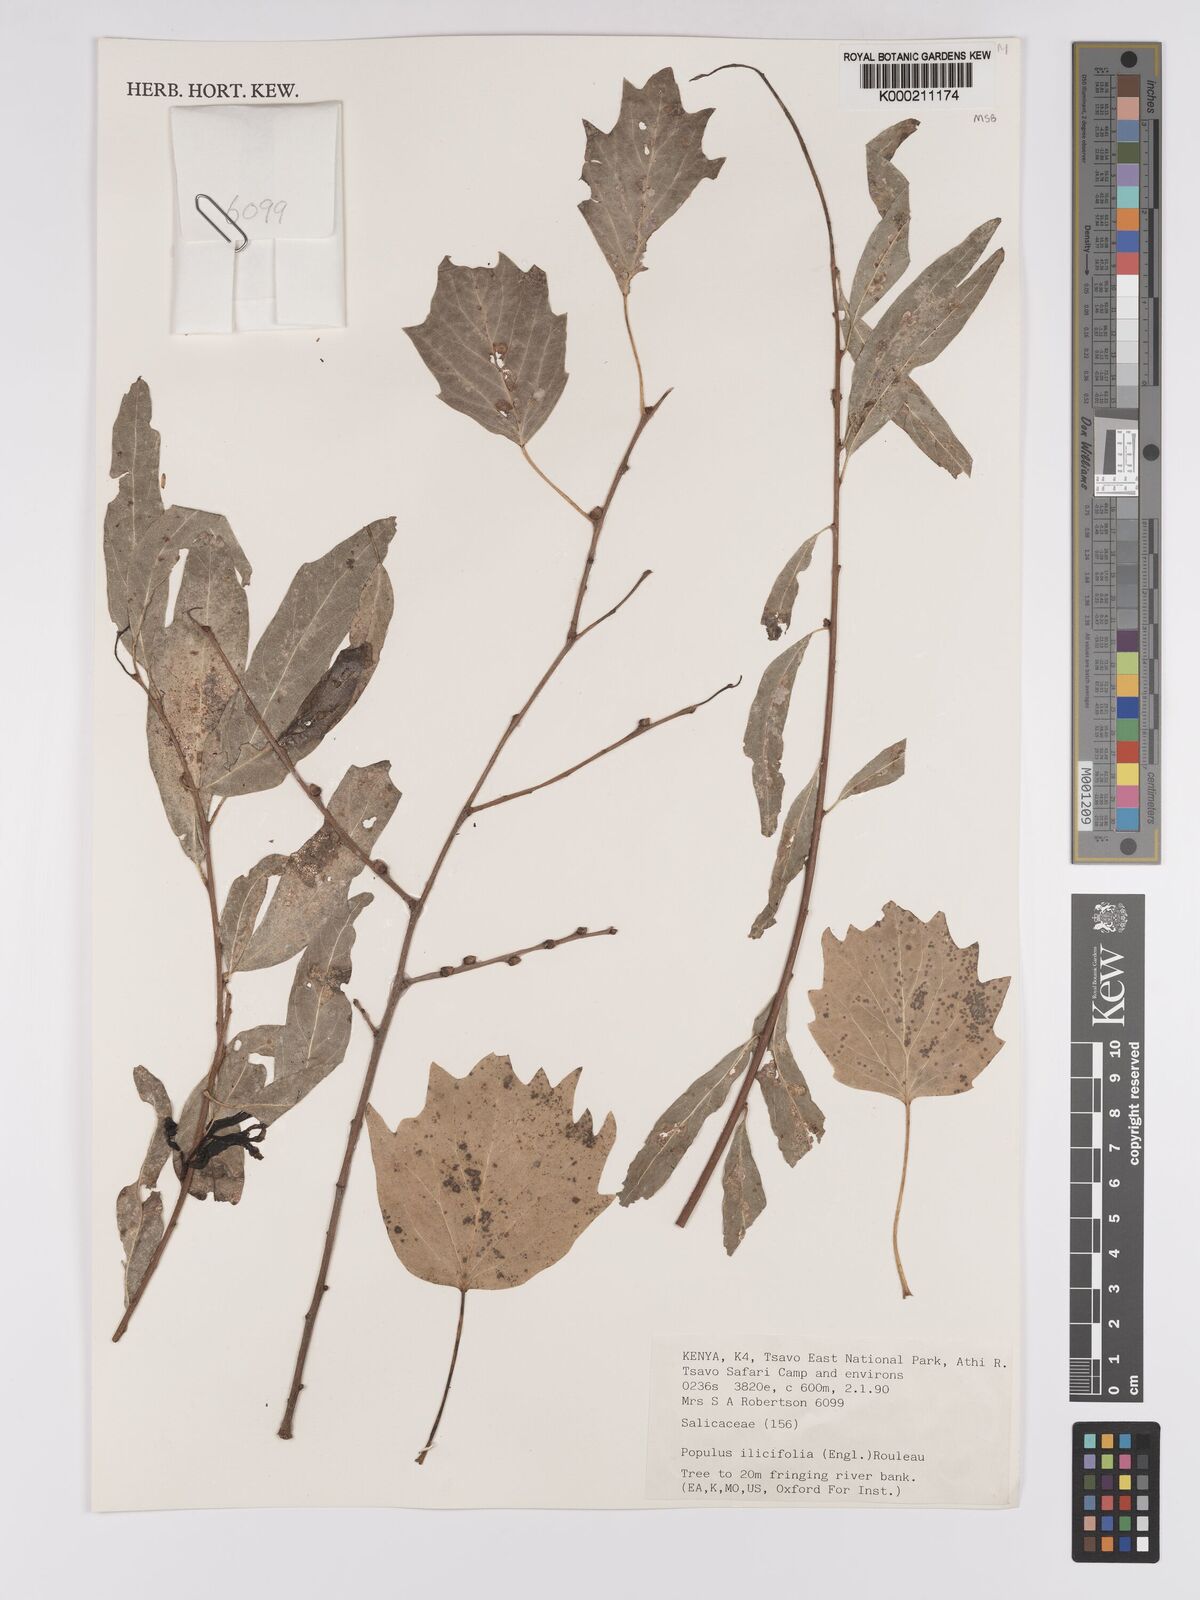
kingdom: Plantae
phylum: Tracheophyta
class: Magnoliopsida
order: Malpighiales
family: Salicaceae
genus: Populus
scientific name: Populus ilicifolia
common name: Tana river poplar
